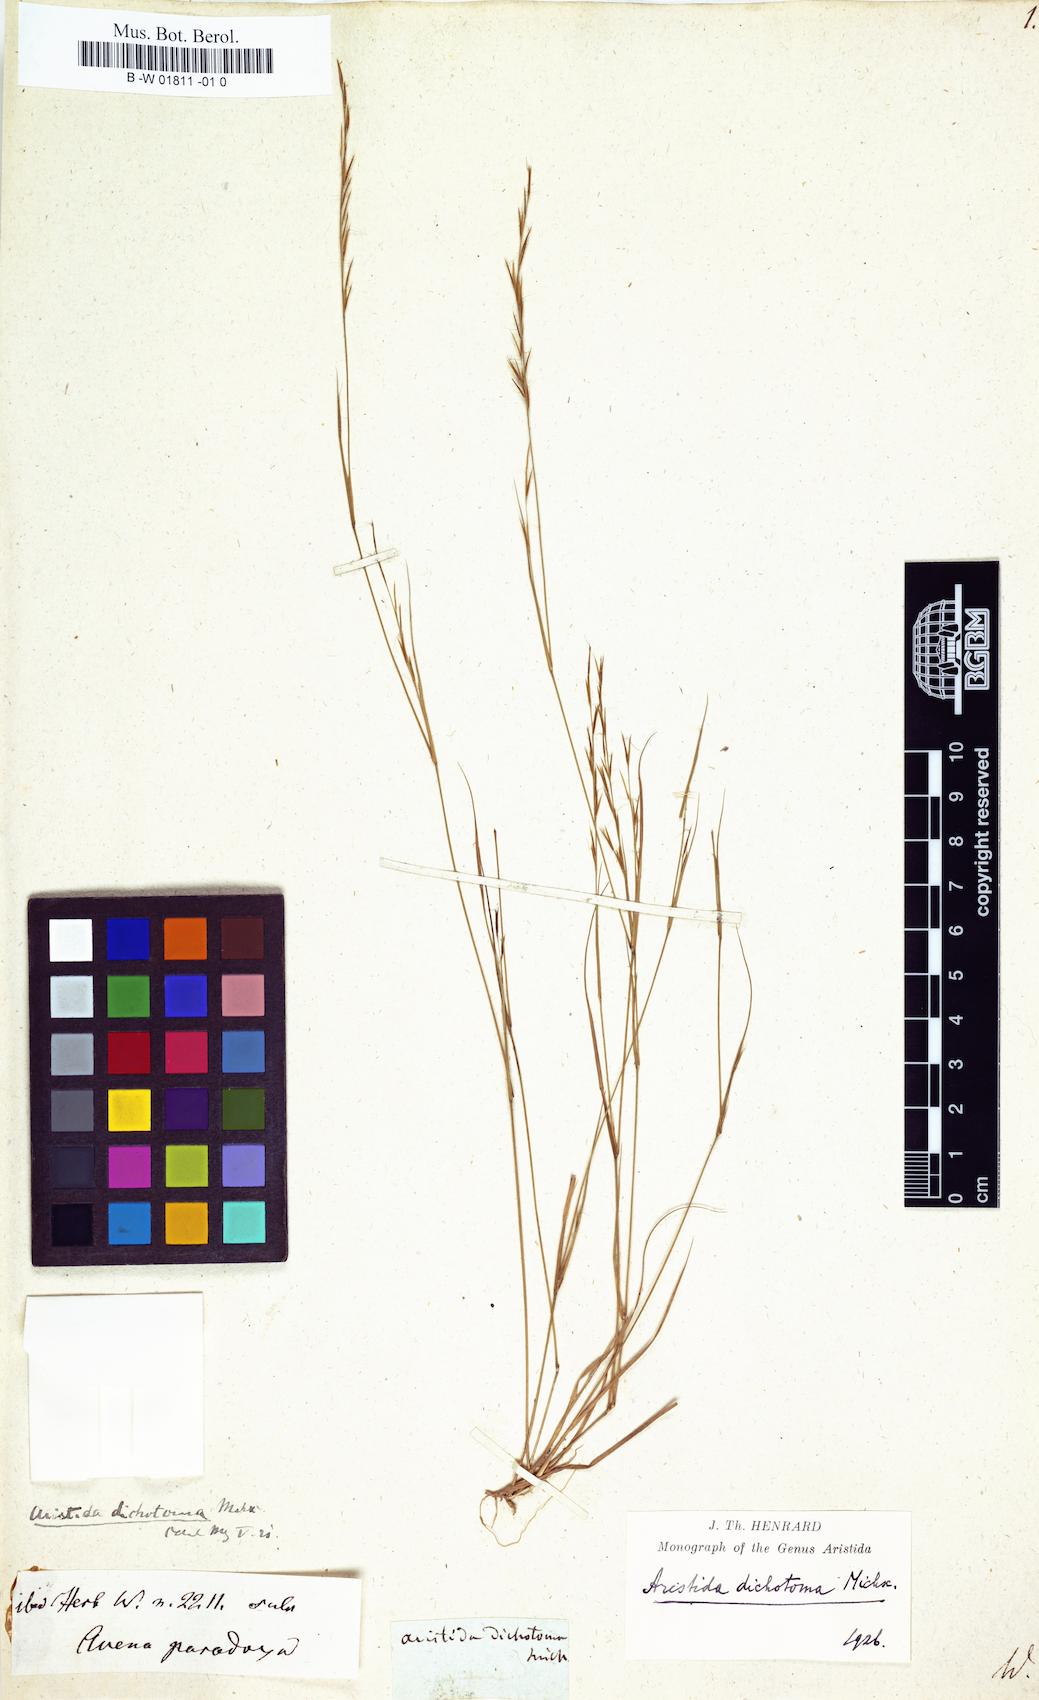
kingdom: Plantae
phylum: Tracheophyta
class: Liliopsida
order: Poales
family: Poaceae
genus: Aristida
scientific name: Aristida dichotoma
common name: Churchmouse three-awn
